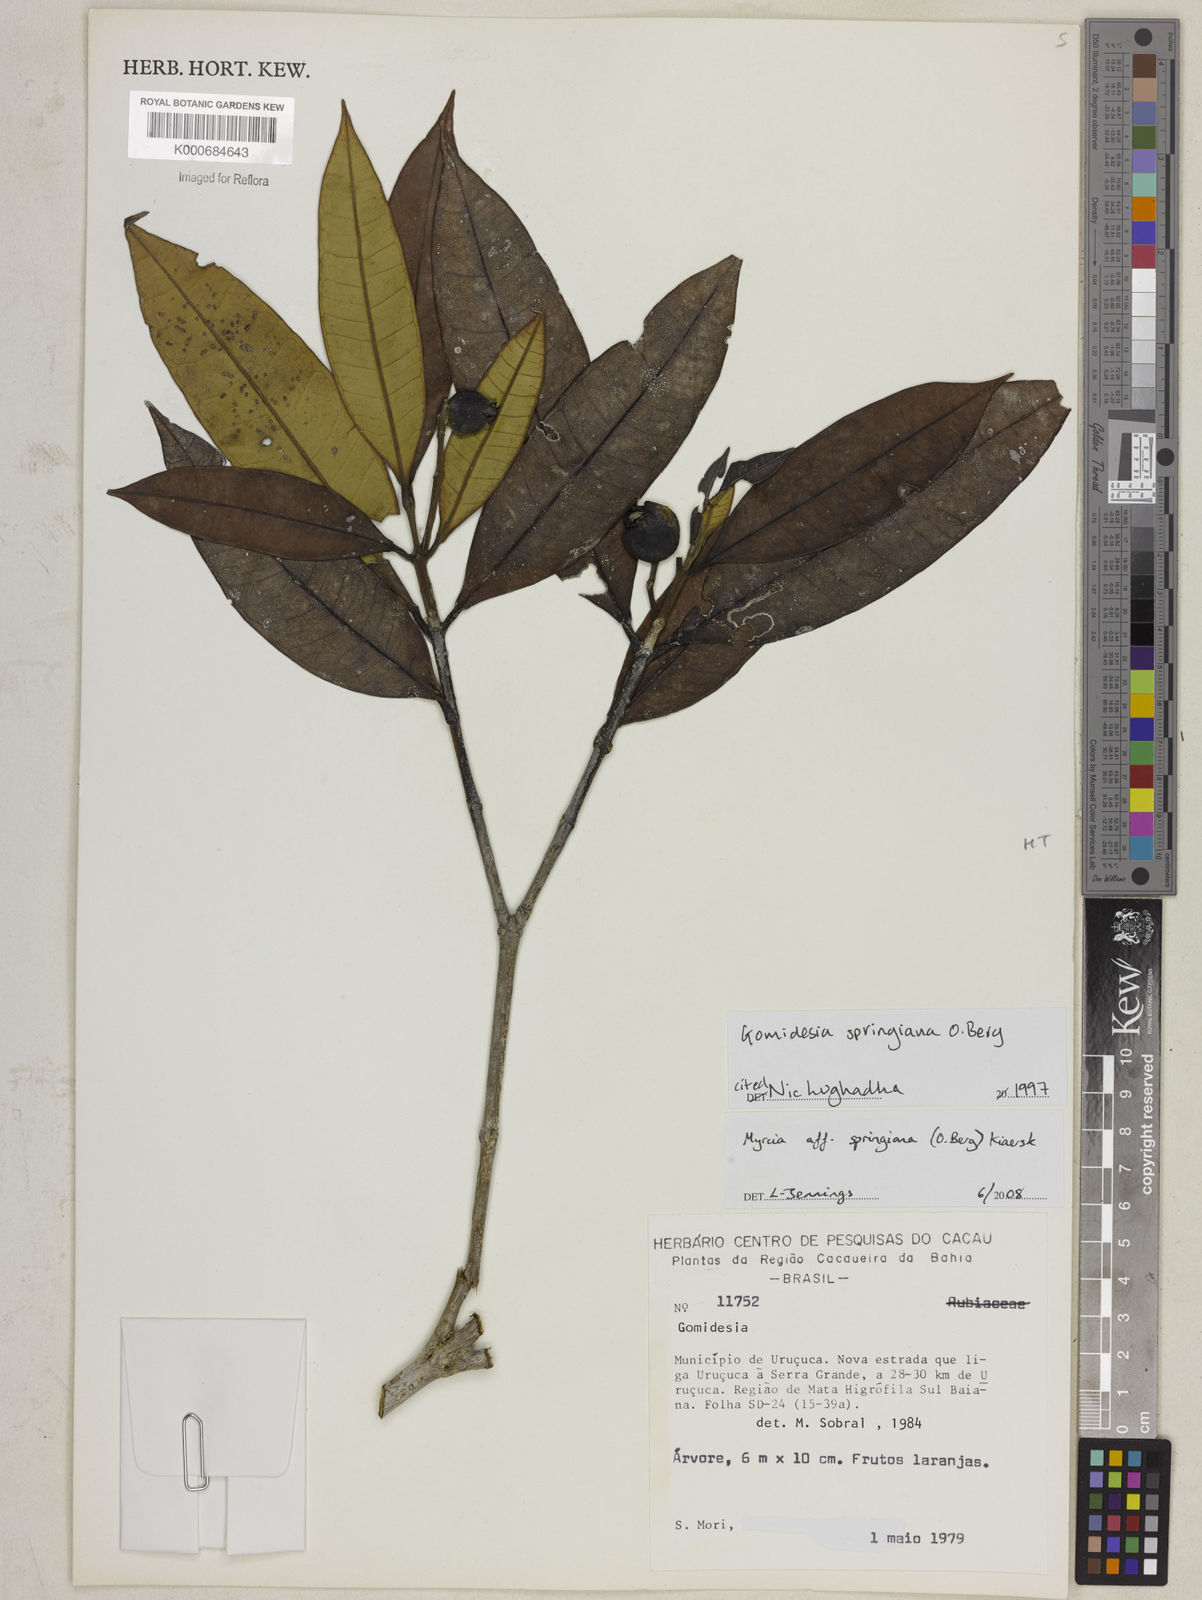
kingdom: Plantae
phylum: Tracheophyta
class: Magnoliopsida
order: Myrtales
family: Myrtaceae
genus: Myrcia
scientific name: Myrcia springiana
